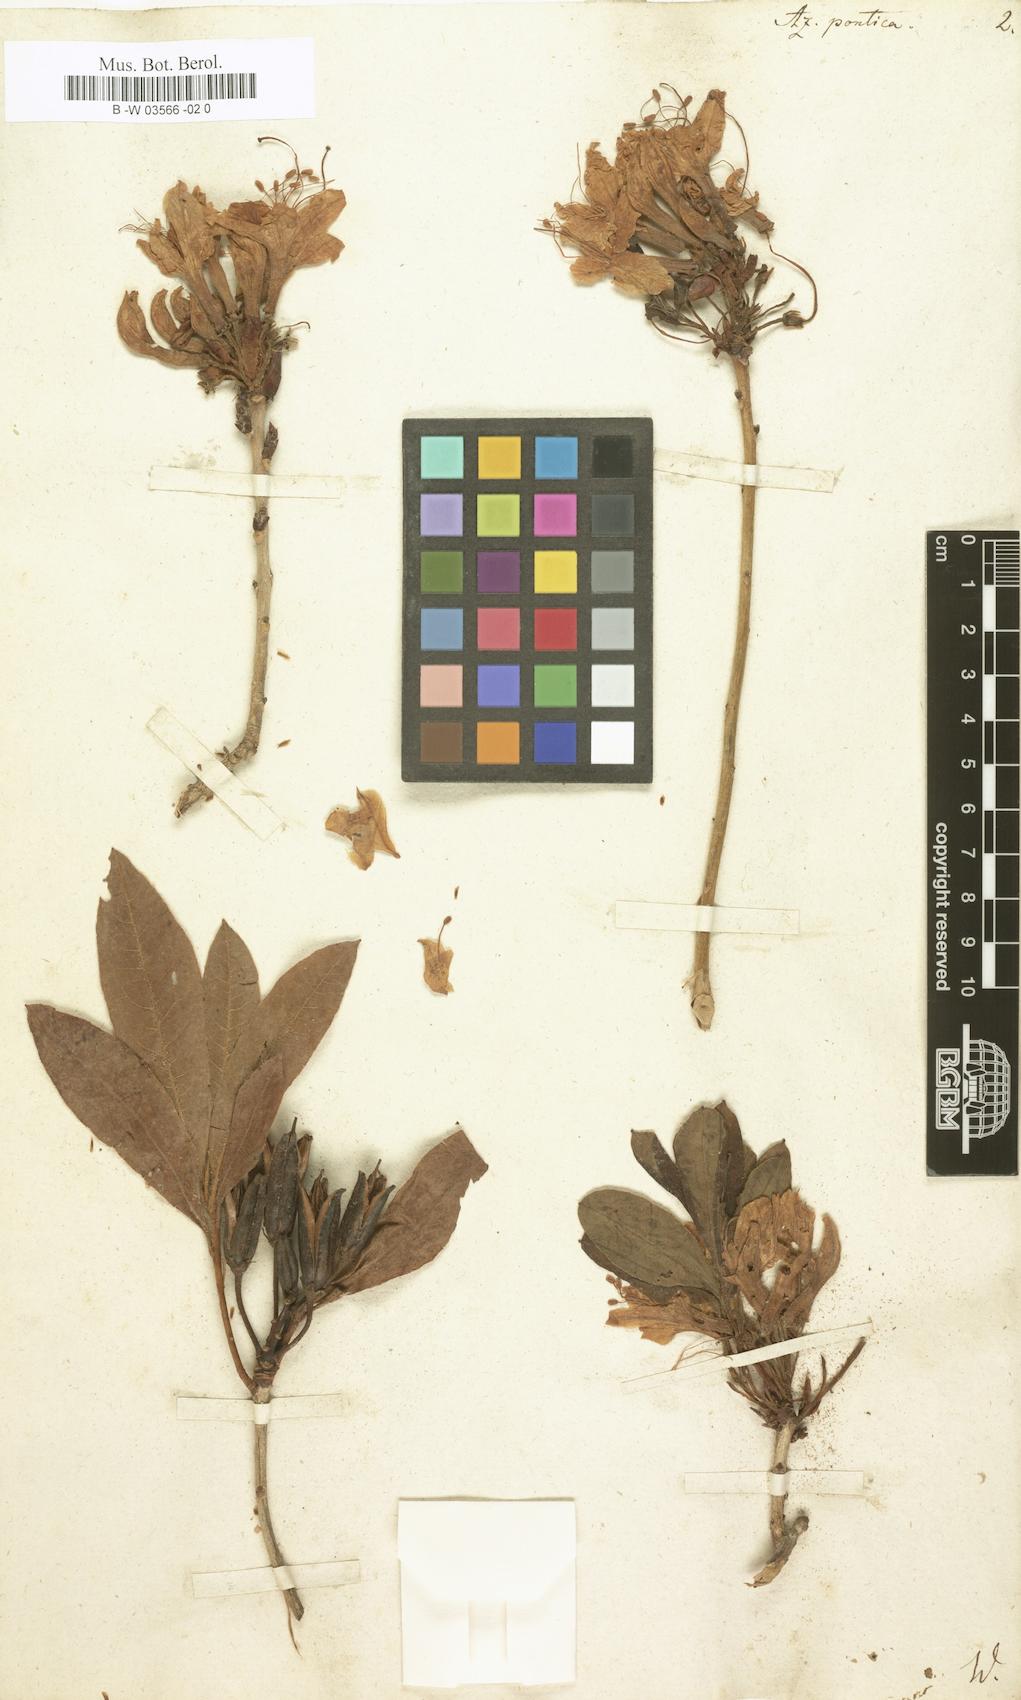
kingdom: Plantae
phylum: Tracheophyta
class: Magnoliopsida
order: Ericales
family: Ericaceae
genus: Rhododendron
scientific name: Rhododendron ponticum
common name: Rhododendron
